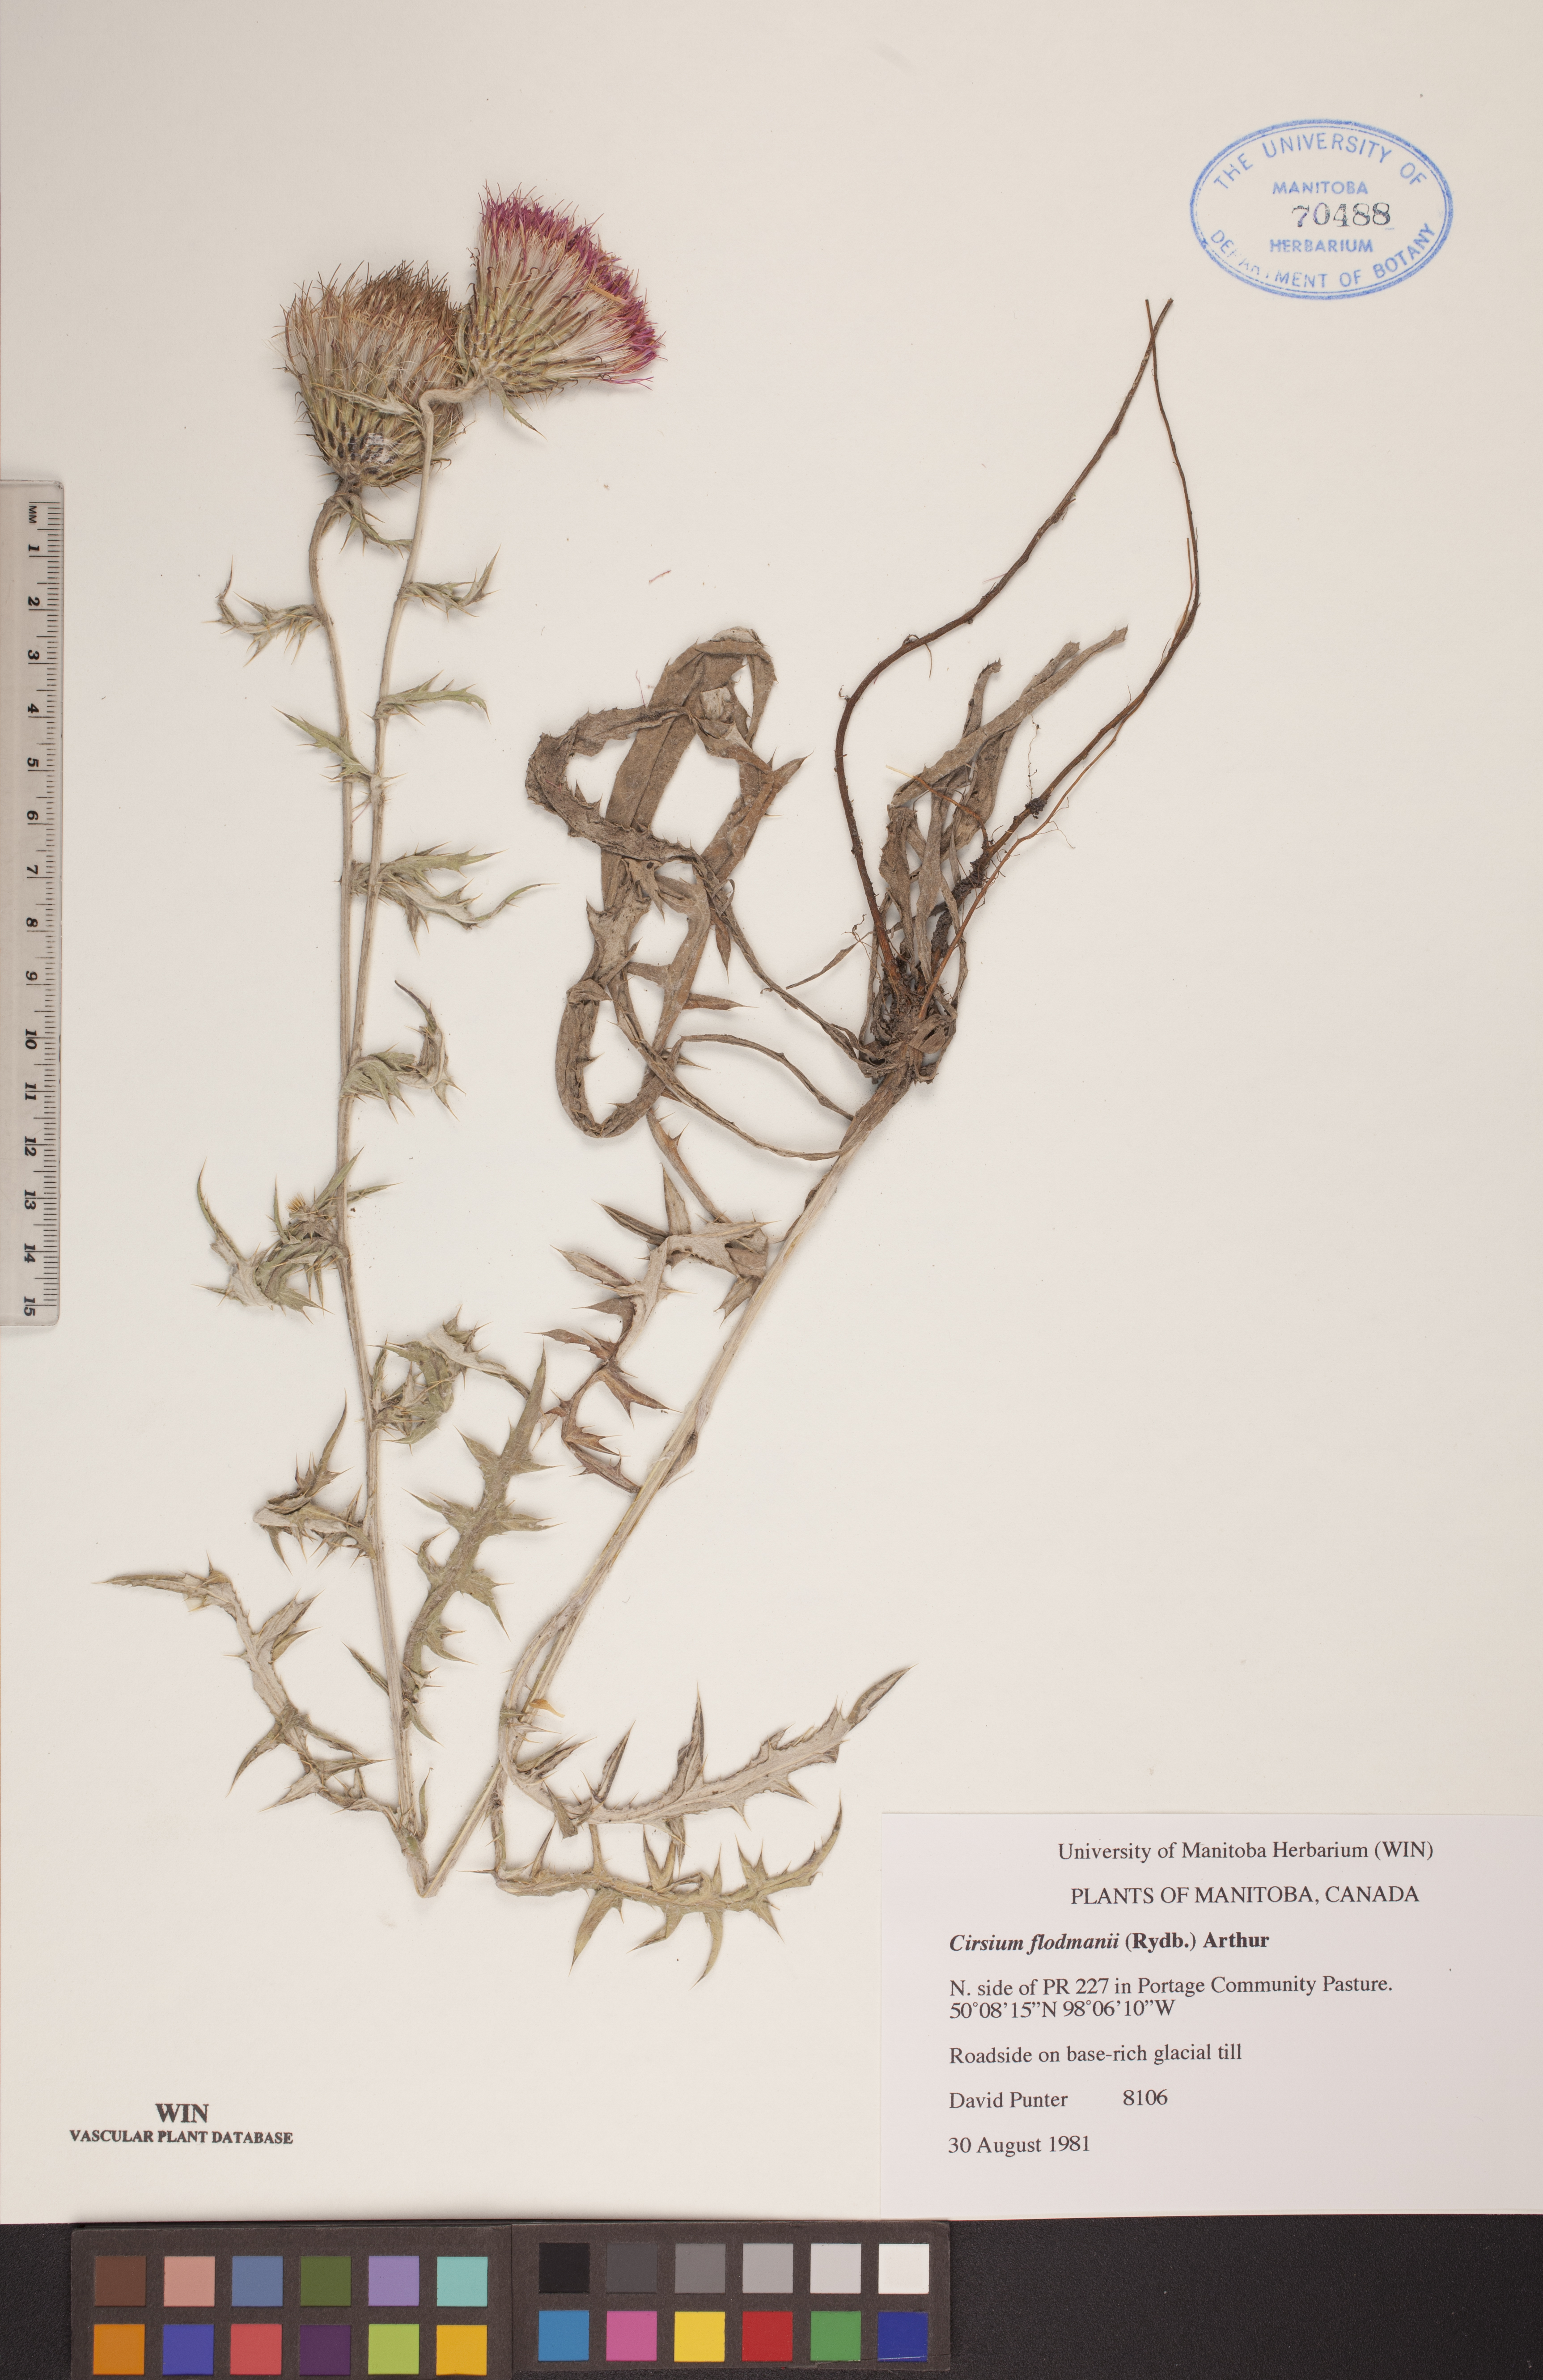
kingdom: Plantae
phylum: Tracheophyta
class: Magnoliopsida
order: Asterales
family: Asteraceae
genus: Cirsium
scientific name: Cirsium flodmanii
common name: Flodman's thistle
